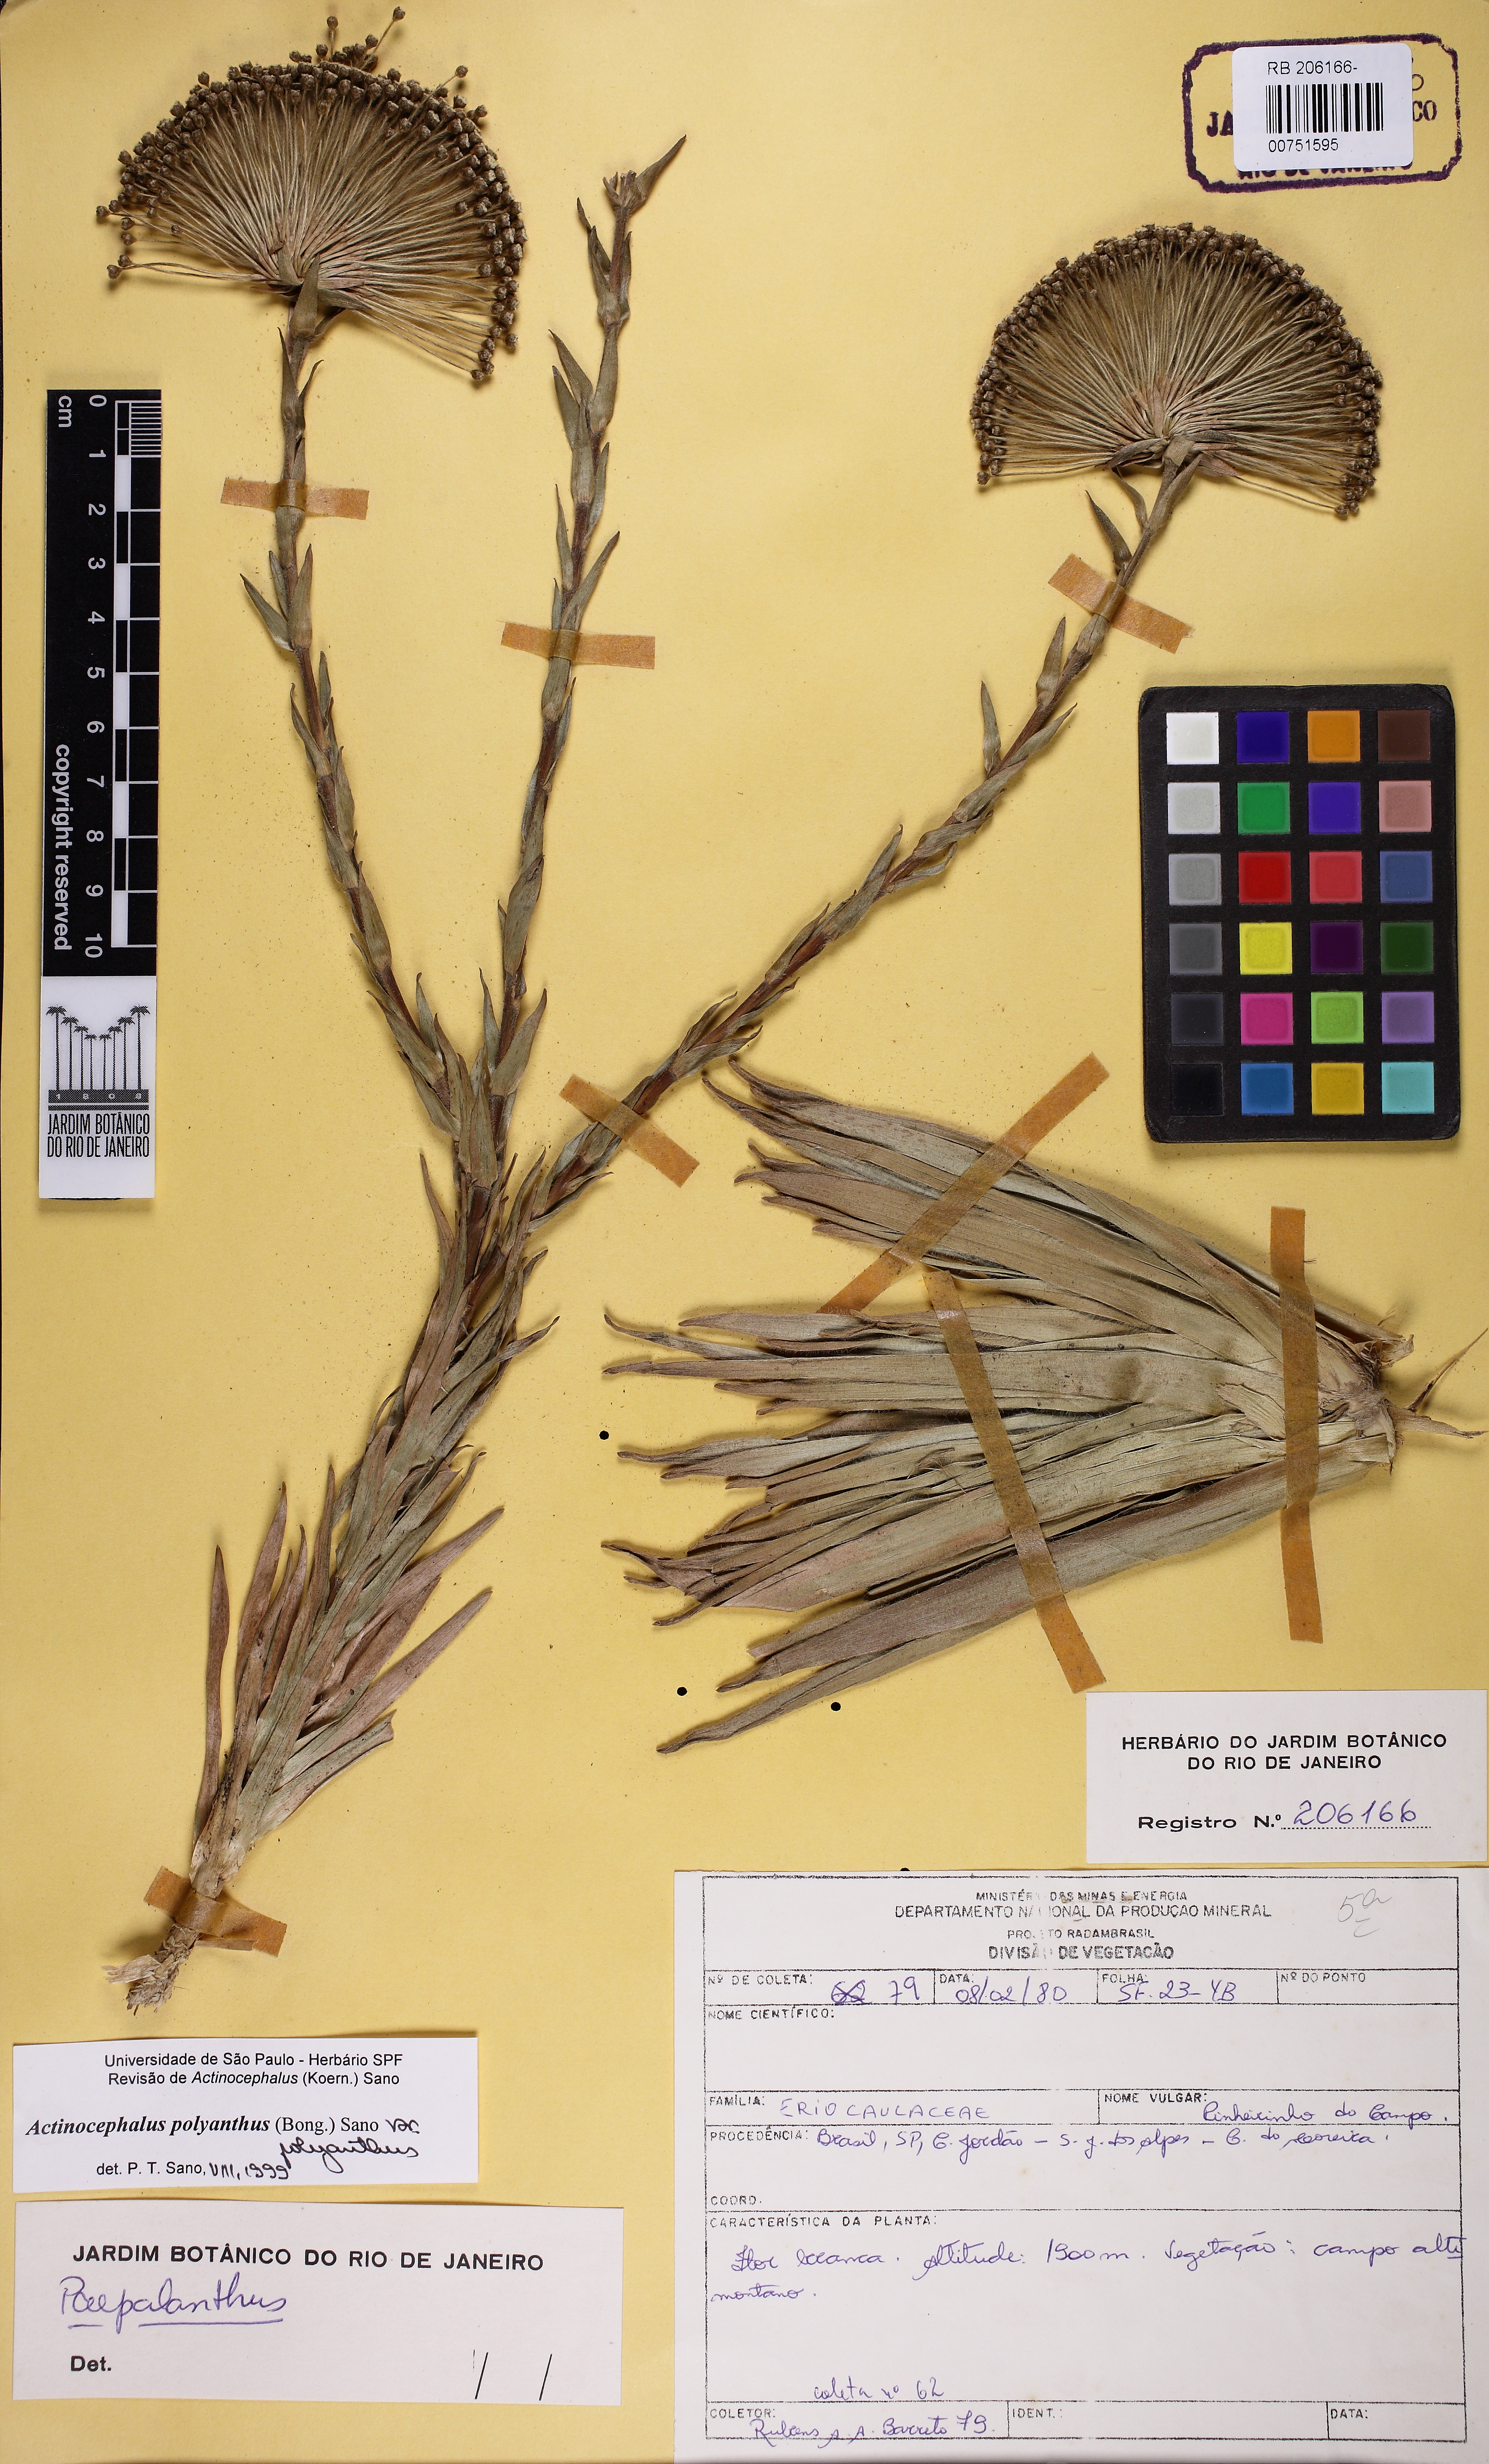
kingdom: Plantae
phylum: Tracheophyta
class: Liliopsida
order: Poales
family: Eriocaulaceae
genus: Paepalanthus
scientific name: Paepalanthus polyanthus
